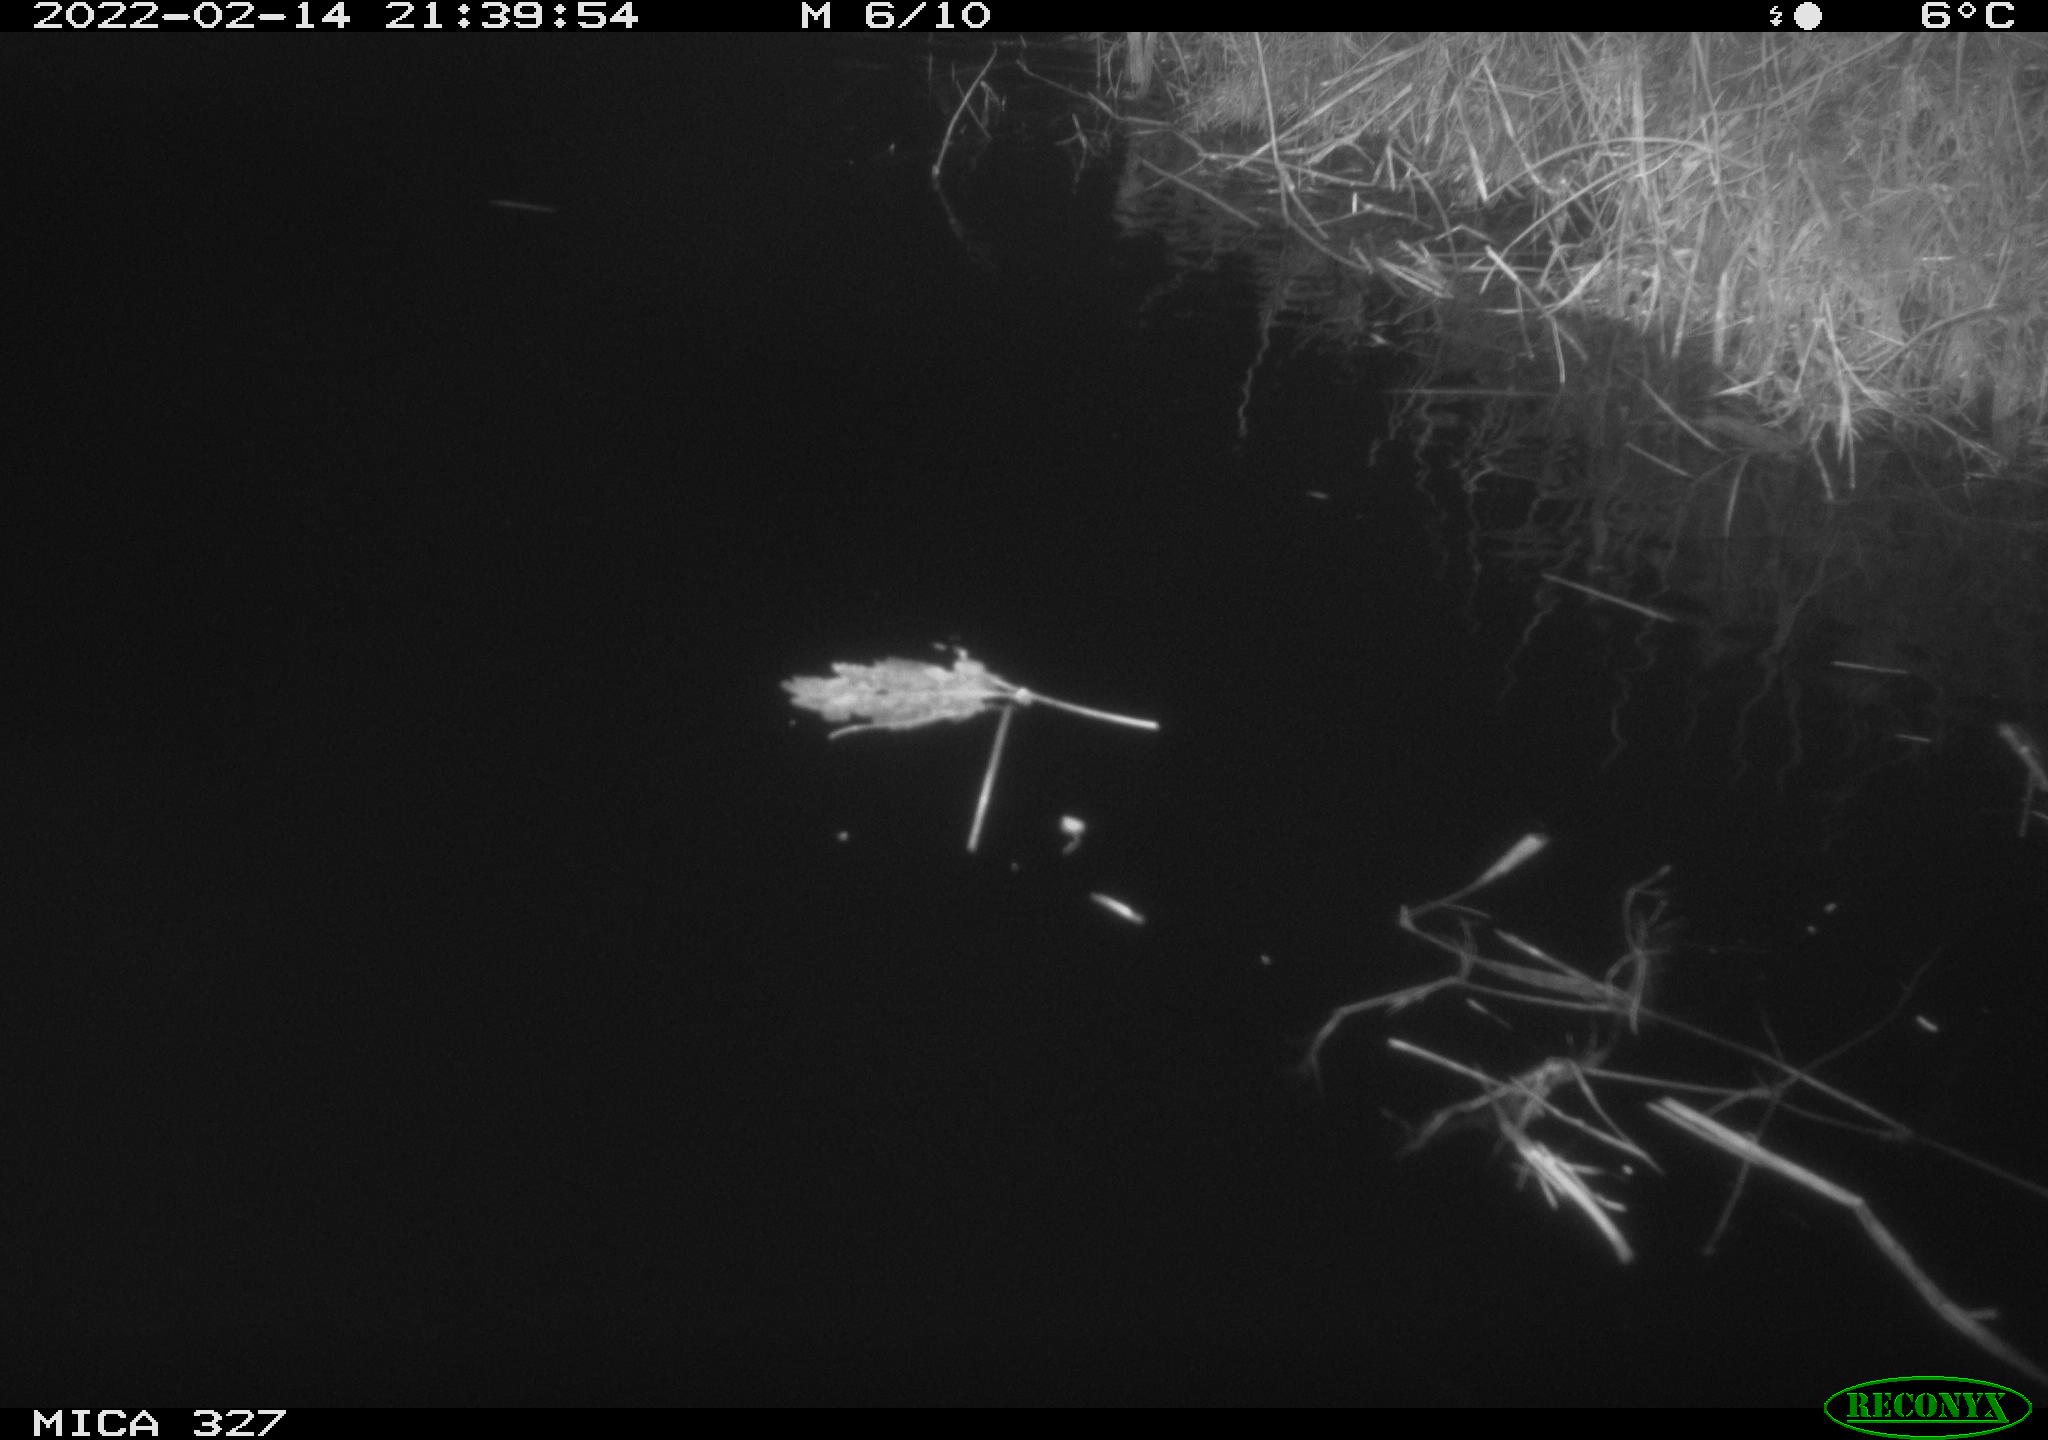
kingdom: Animalia
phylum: Chordata
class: Mammalia
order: Rodentia
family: Cricetidae
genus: Ondatra
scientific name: Ondatra zibethicus
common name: Muskrat
